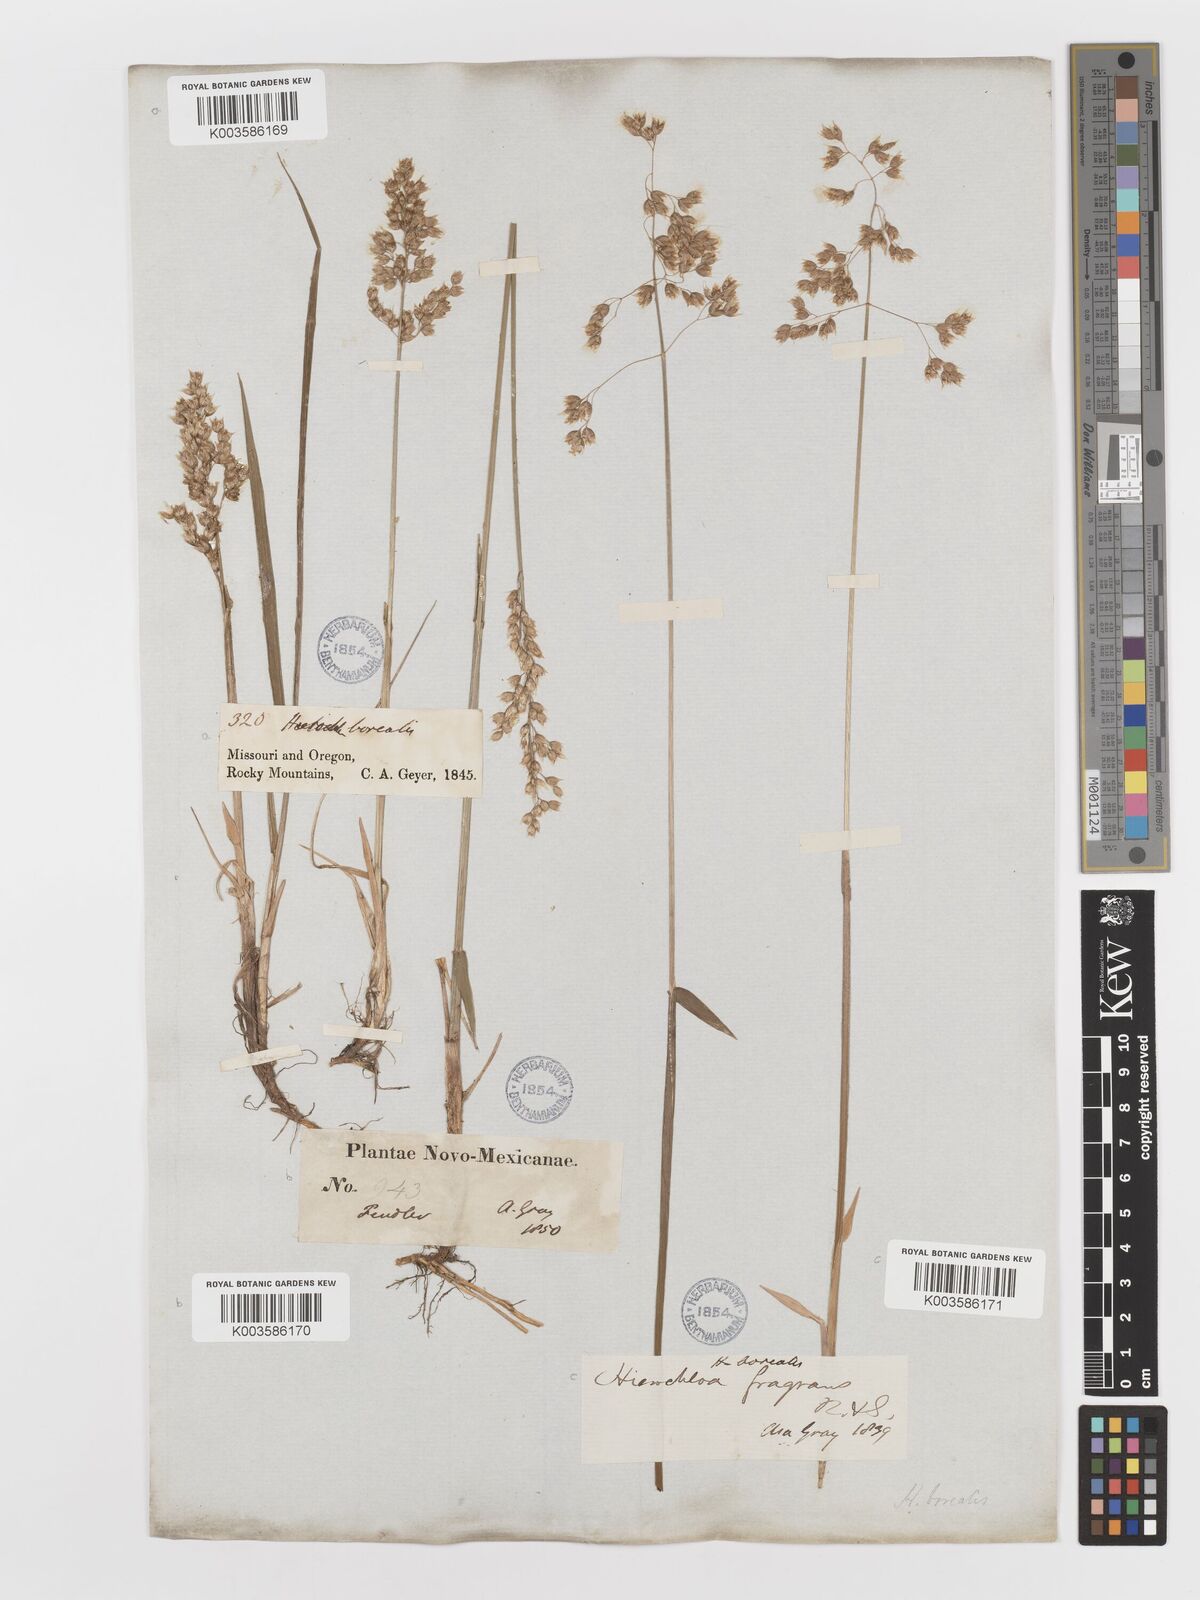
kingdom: Plantae
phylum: Tracheophyta
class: Liliopsida
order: Poales
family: Poaceae
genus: Anthoxanthum
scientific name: Anthoxanthum nitens
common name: Holy grass
